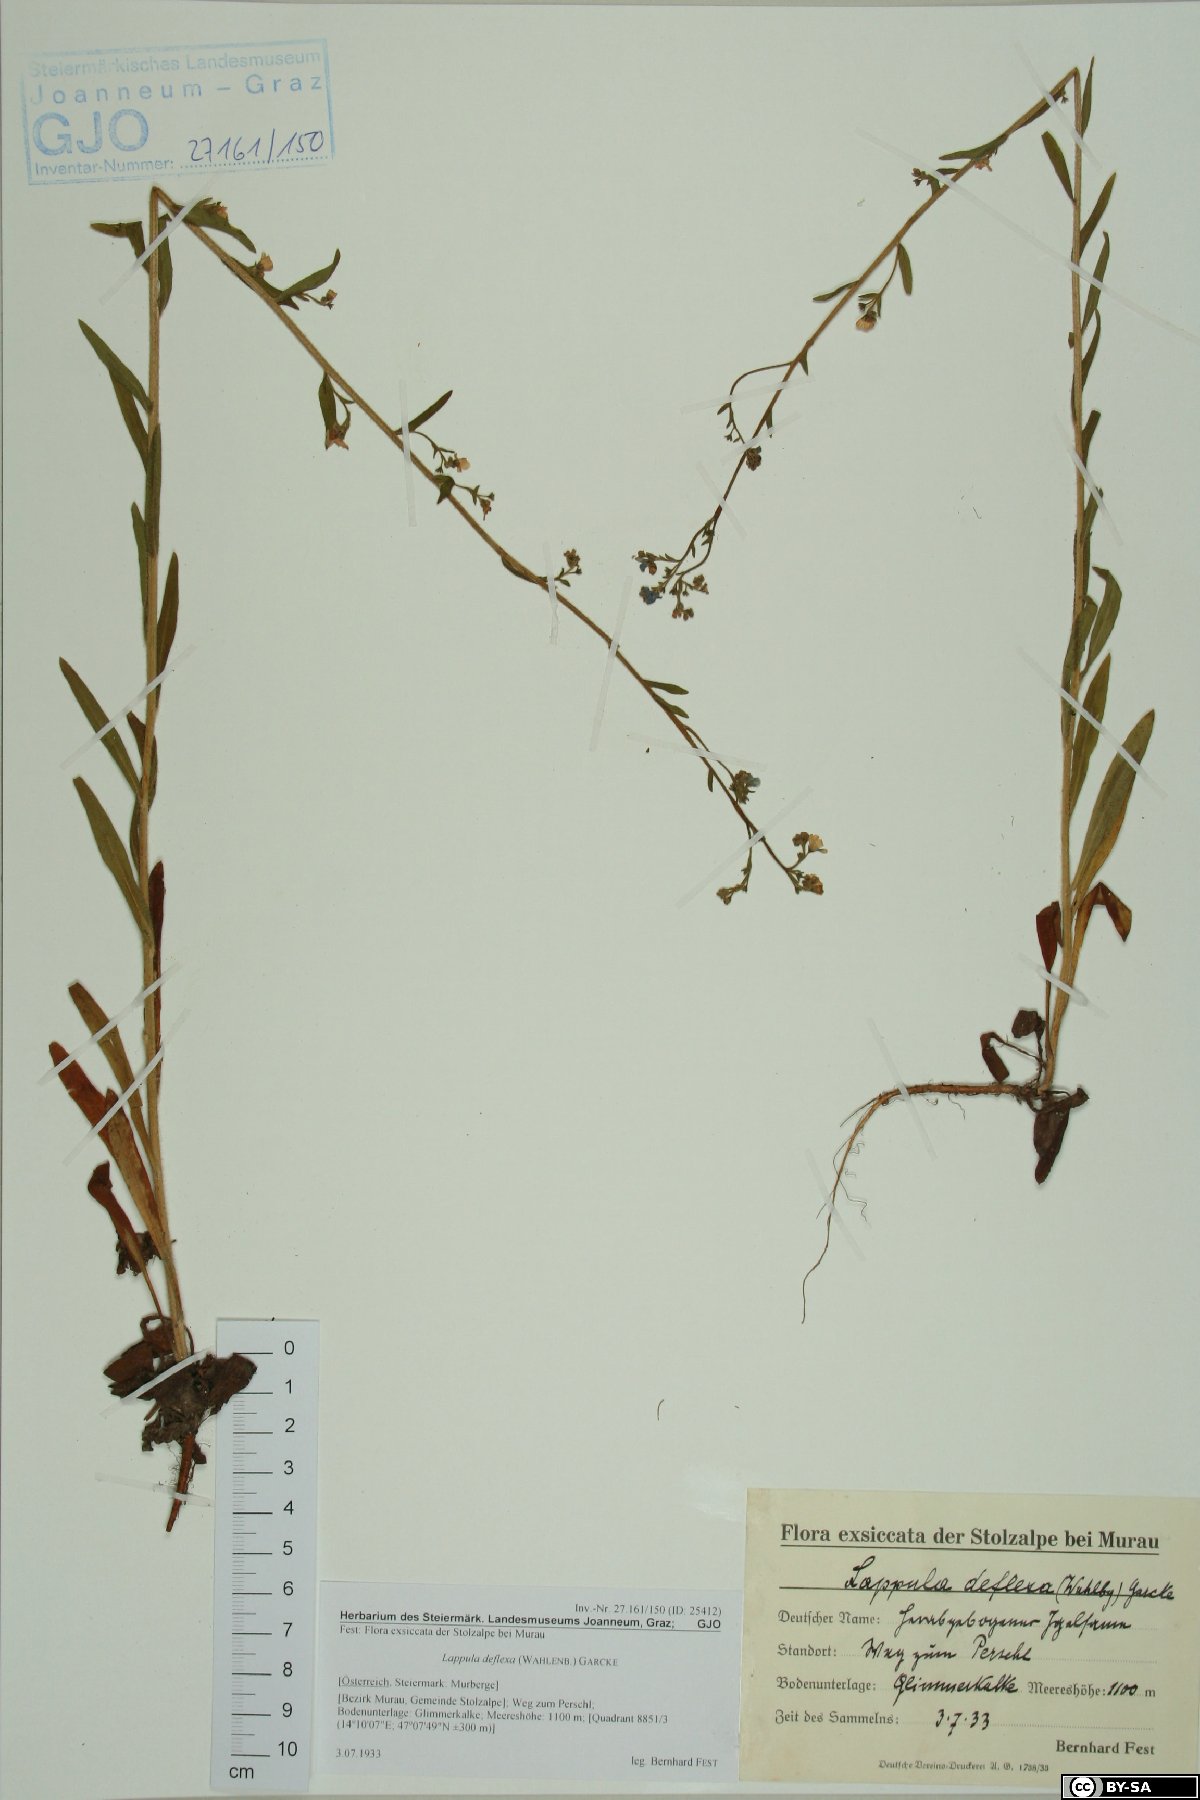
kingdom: Plantae
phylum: Tracheophyta
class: Magnoliopsida
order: Boraginales
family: Boraginaceae
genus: Hackelia
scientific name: Hackelia deflexa
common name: Nodding stickseed
